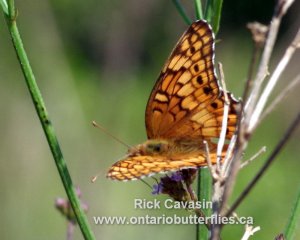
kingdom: Animalia
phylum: Arthropoda
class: Insecta
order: Lepidoptera
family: Nymphalidae
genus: Euptoieta
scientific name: Euptoieta claudia
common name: Variegated Fritillary
